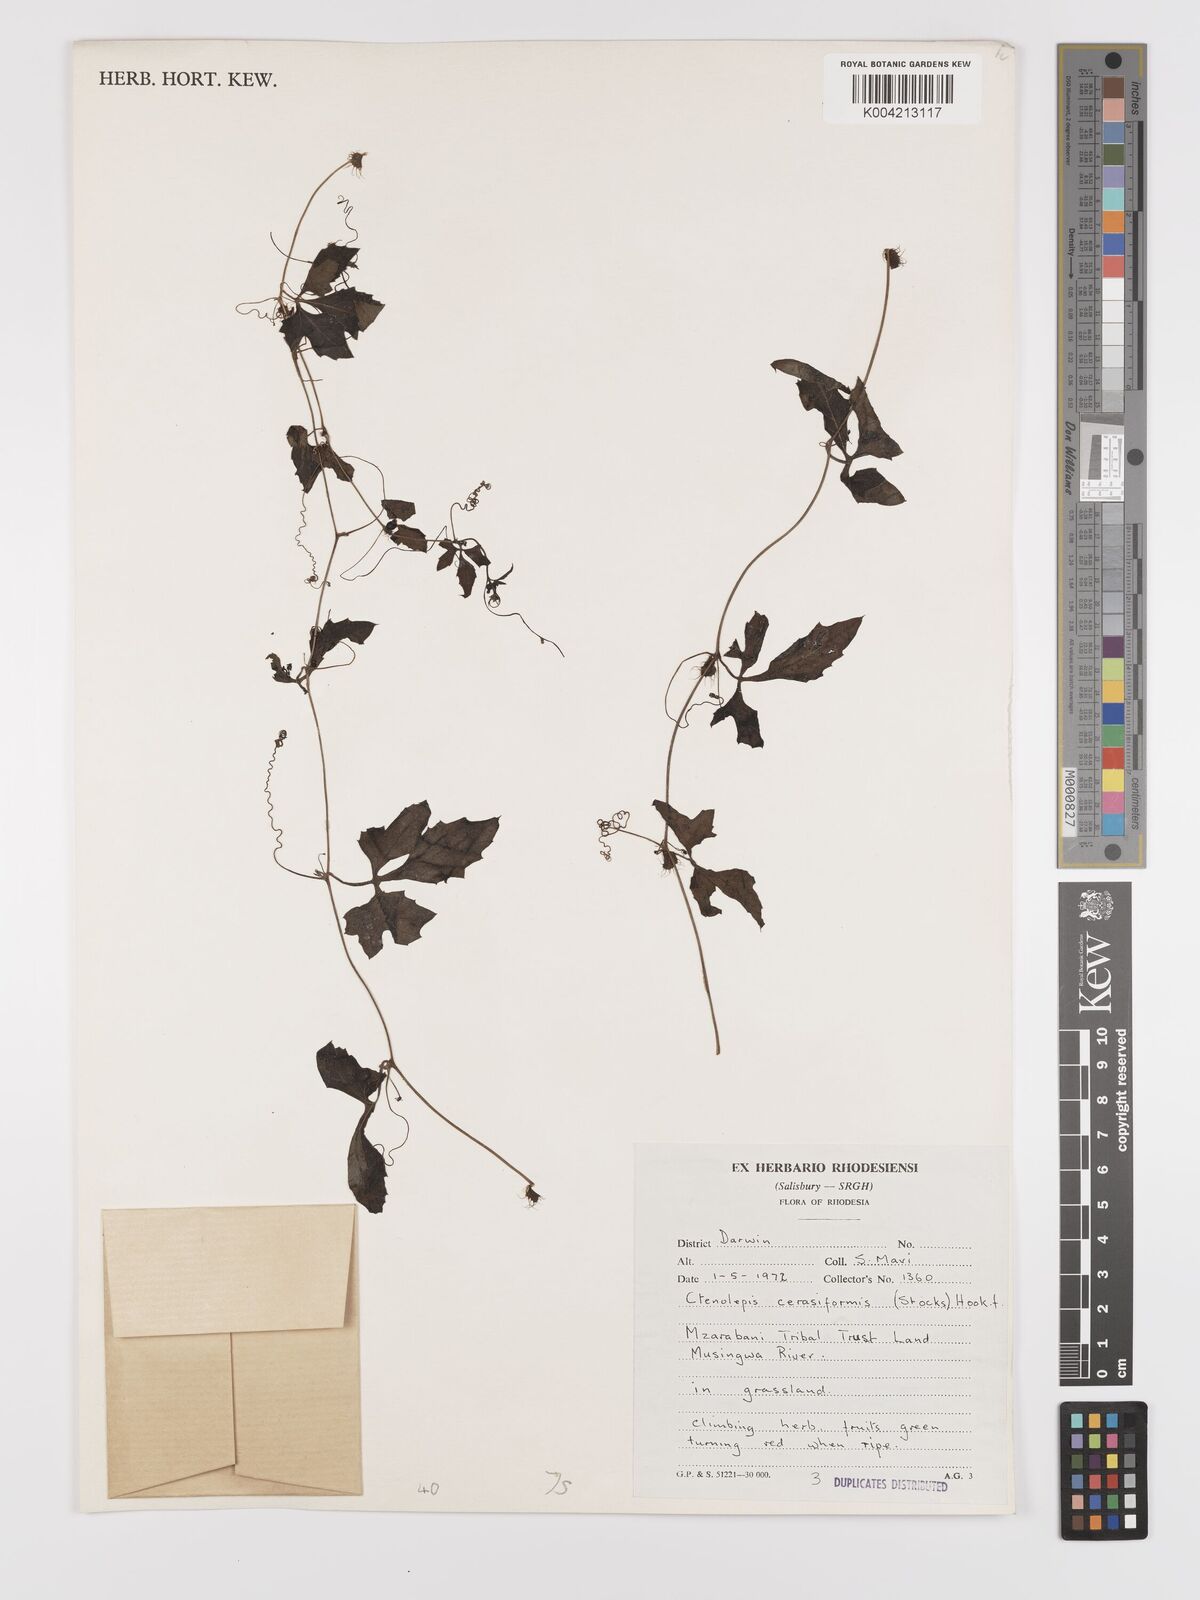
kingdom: Plantae
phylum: Tracheophyta
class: Magnoliopsida
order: Cucurbitales
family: Cucurbitaceae
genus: Blastania
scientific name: Blastania cerasiformis
